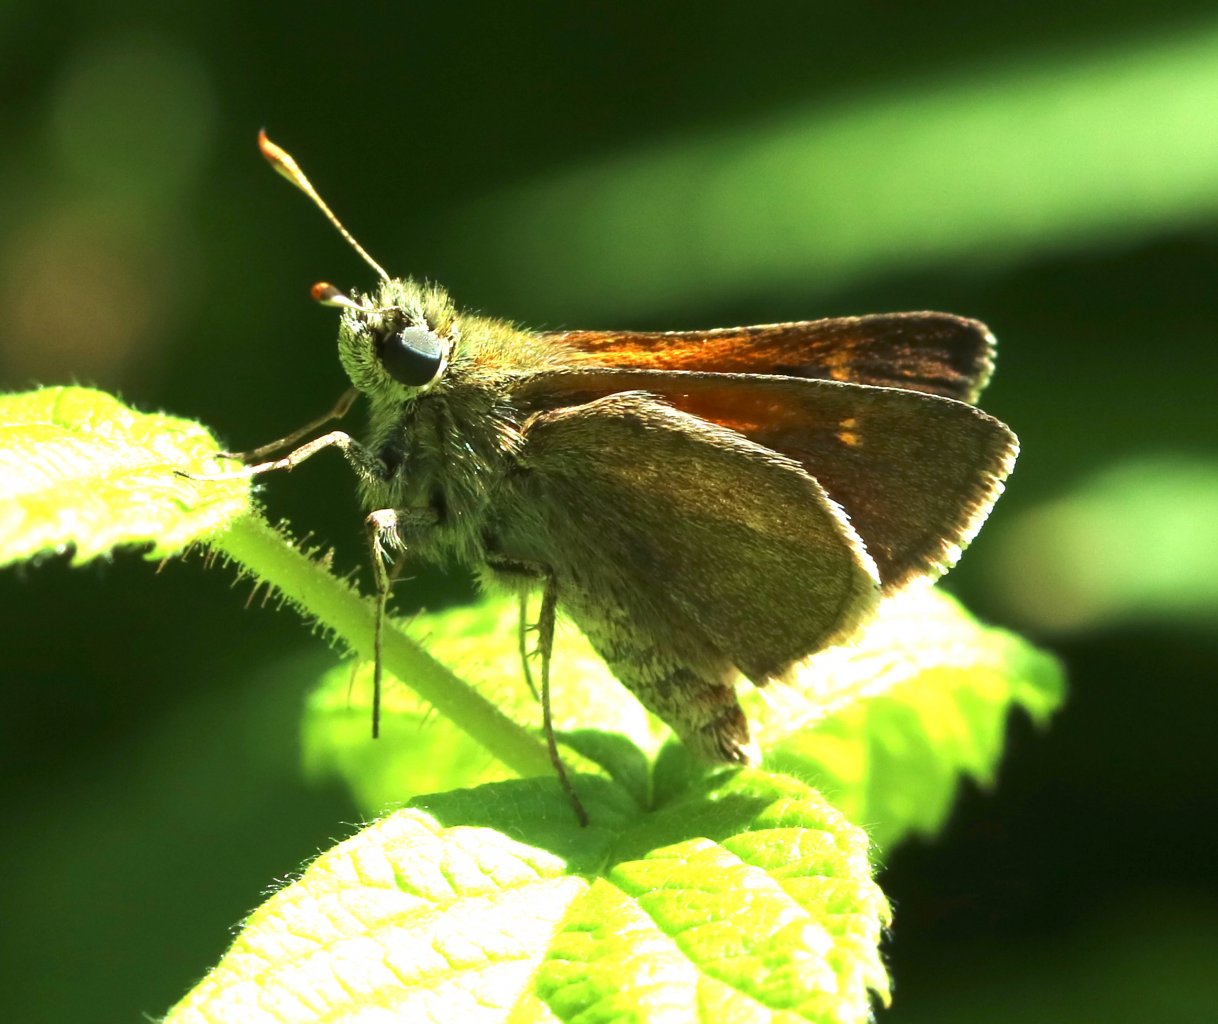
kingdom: Animalia
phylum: Arthropoda
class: Insecta
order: Lepidoptera
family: Hesperiidae
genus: Polites
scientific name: Polites themistocles
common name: Tawny-edged Skipper
